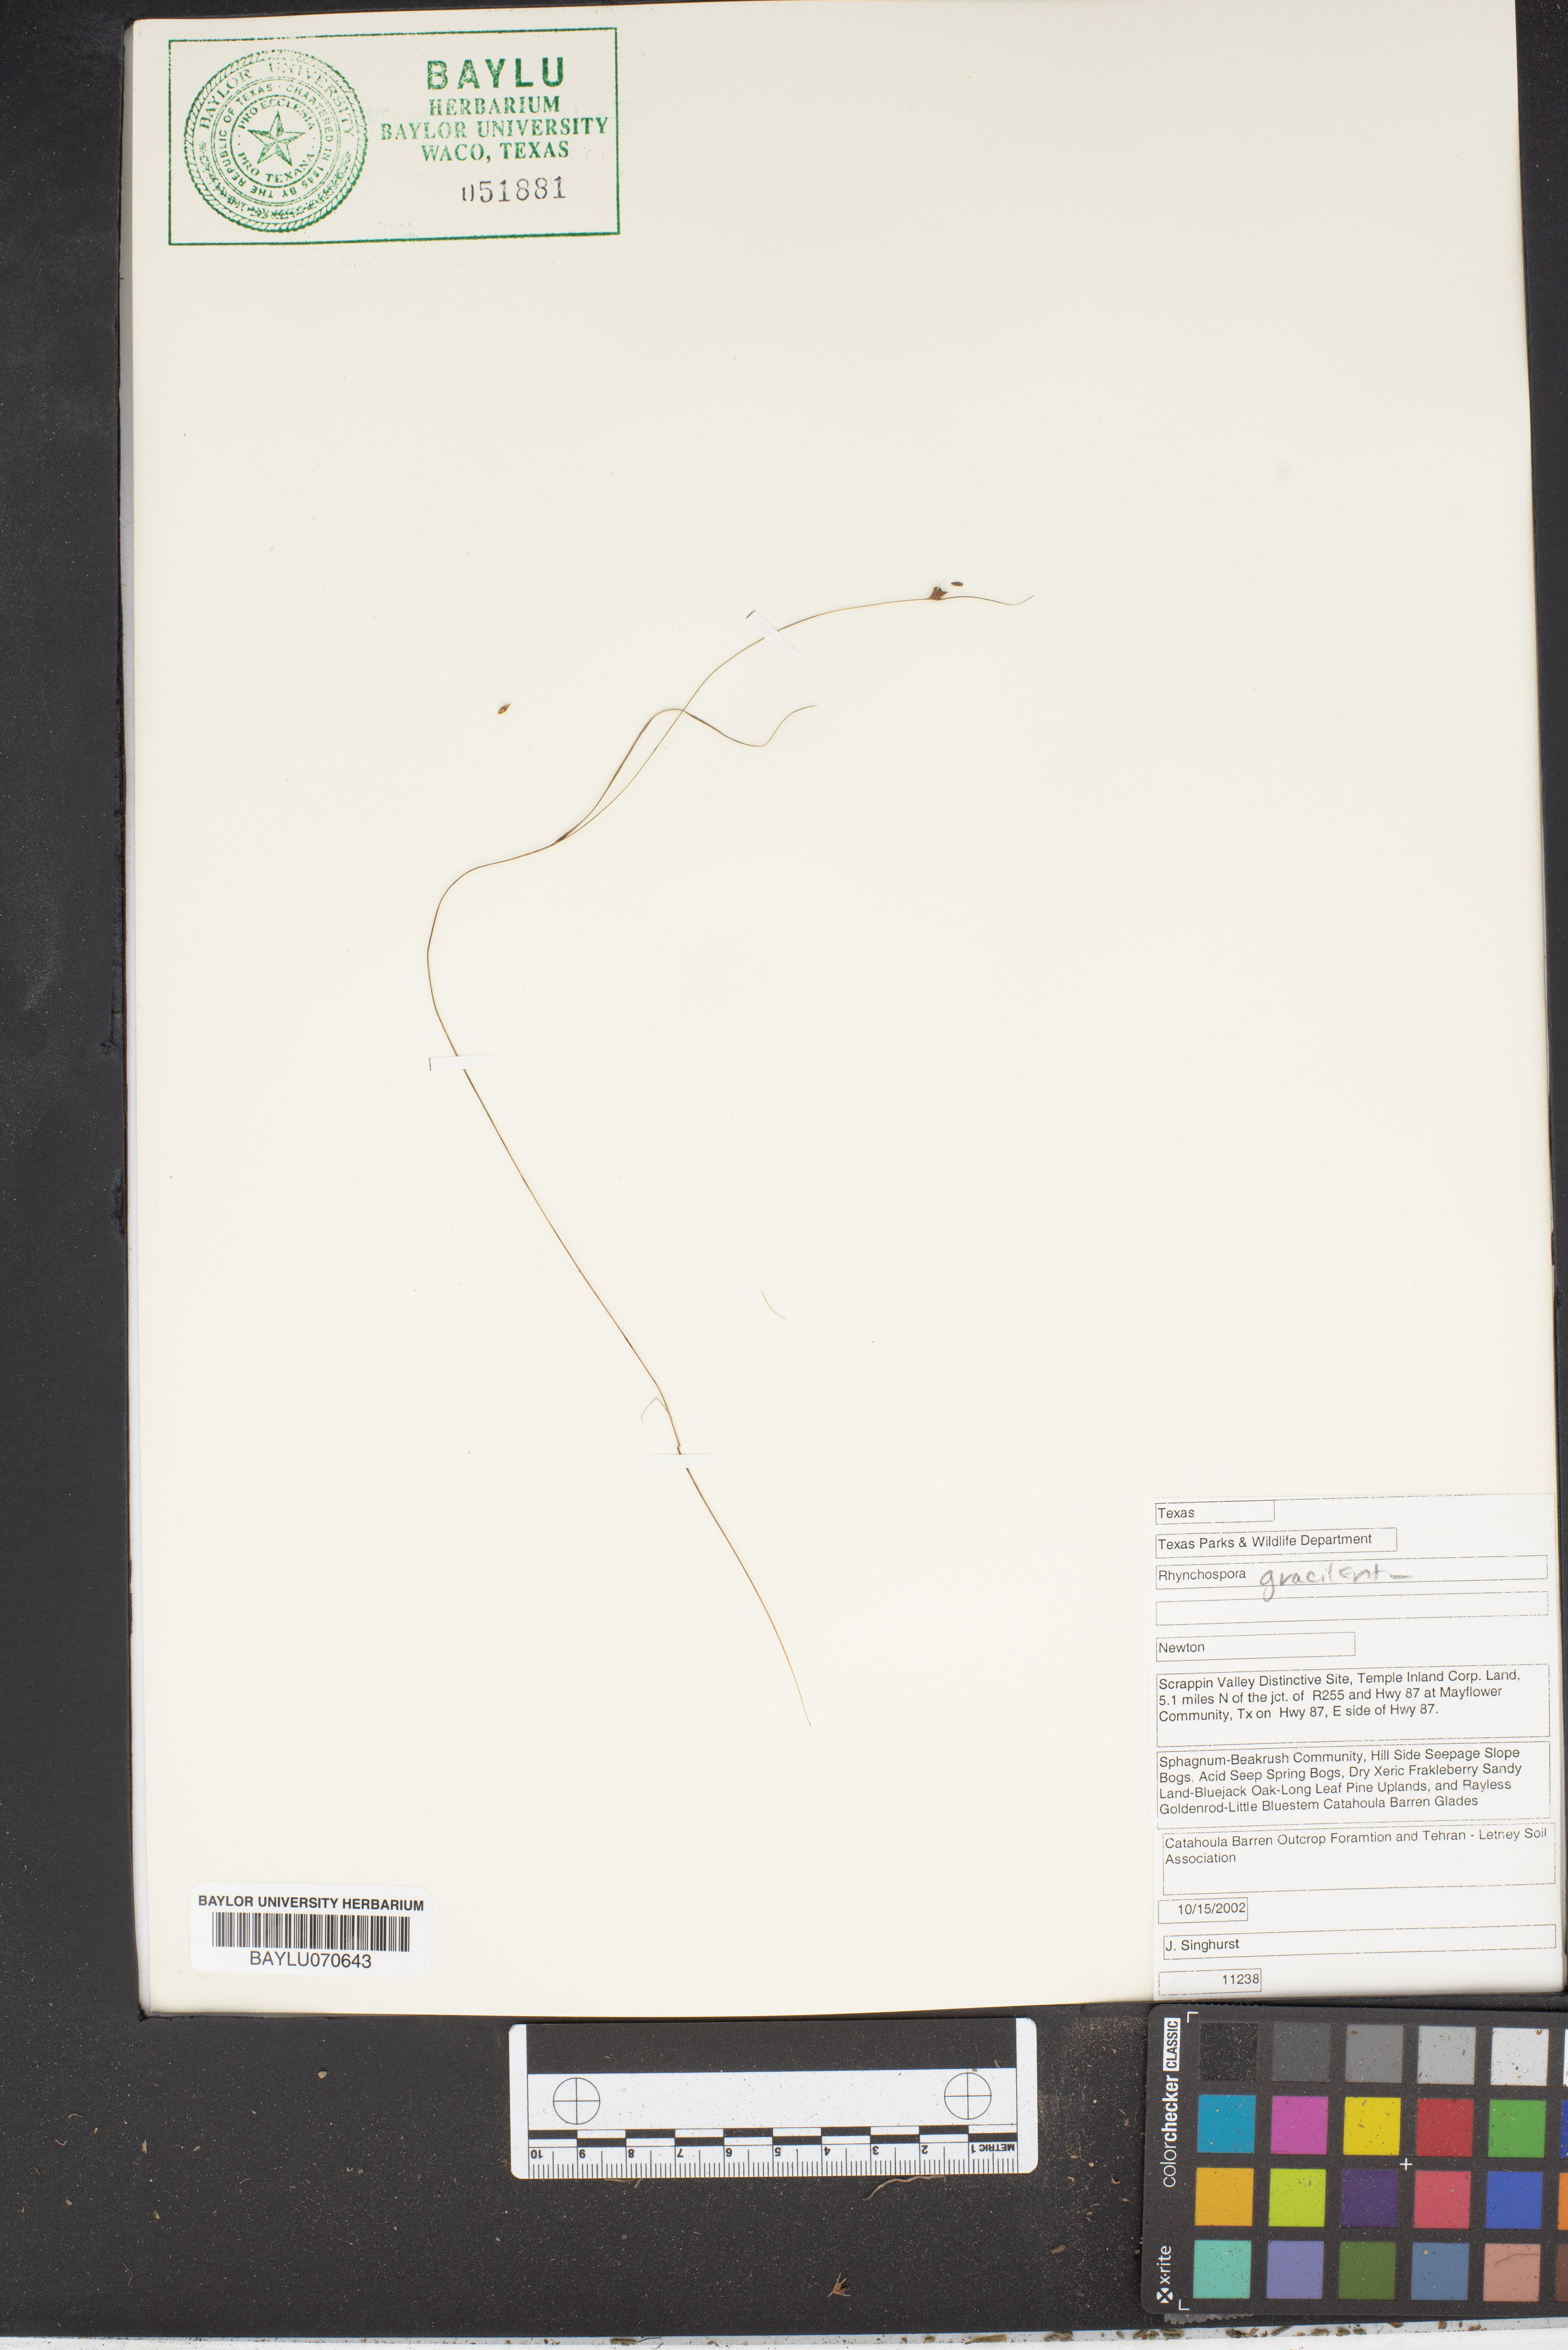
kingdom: Plantae
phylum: Tracheophyta
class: Liliopsida
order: Poales
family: Cyperaceae
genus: Rhynchospora
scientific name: Rhynchospora gracilenta
